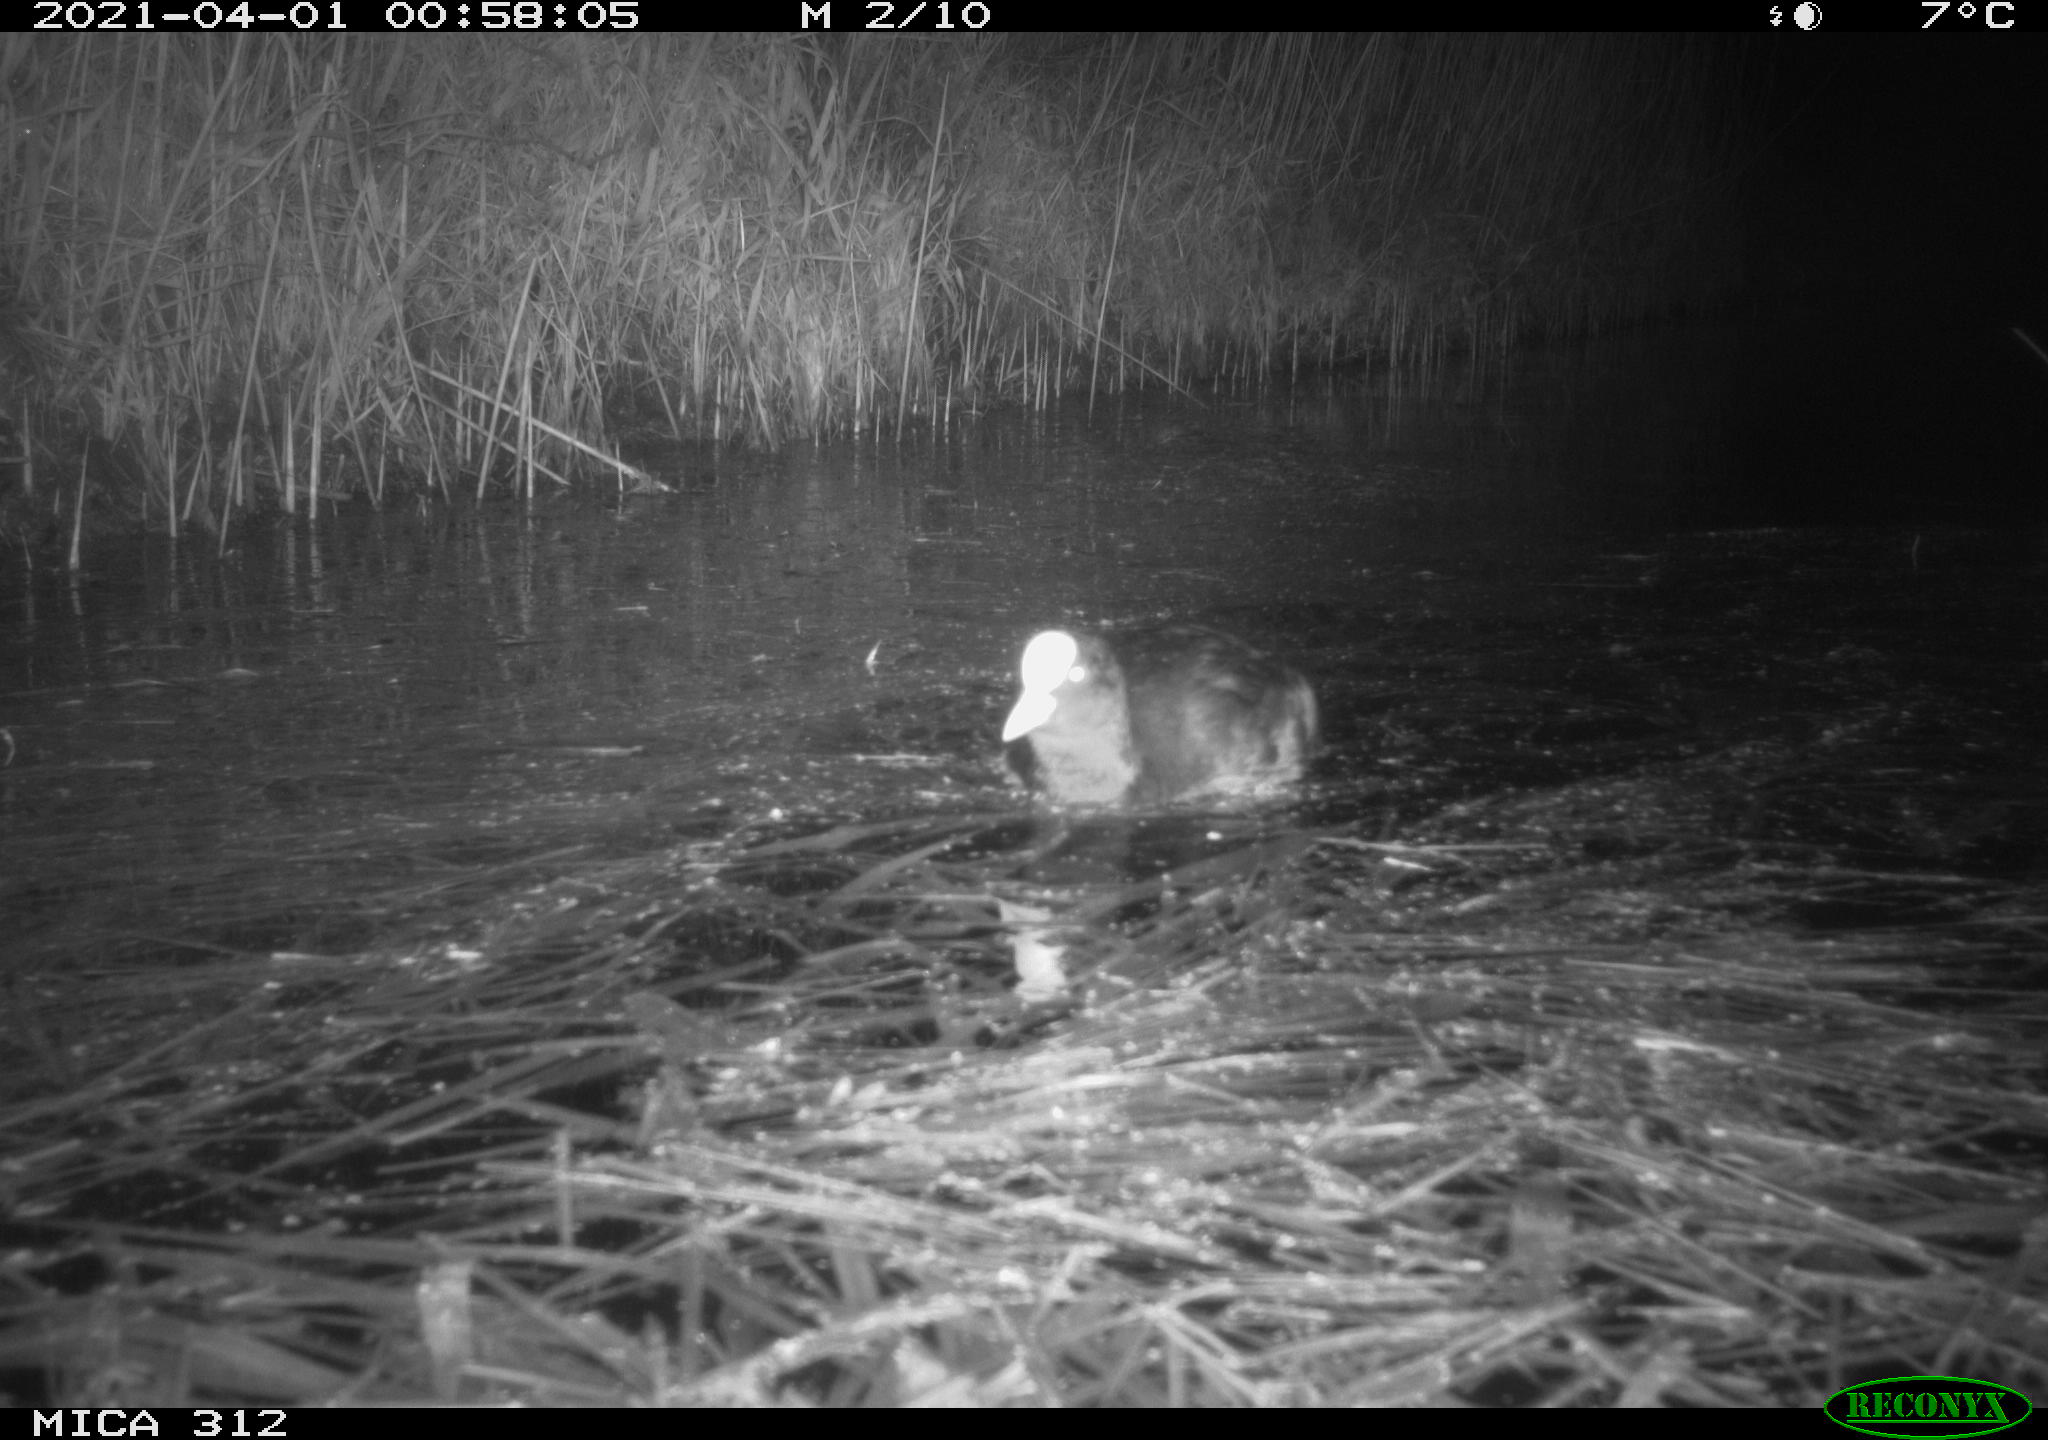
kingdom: Animalia
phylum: Chordata
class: Aves
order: Gruiformes
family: Rallidae
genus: Fulica
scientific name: Fulica atra
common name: Eurasian coot
